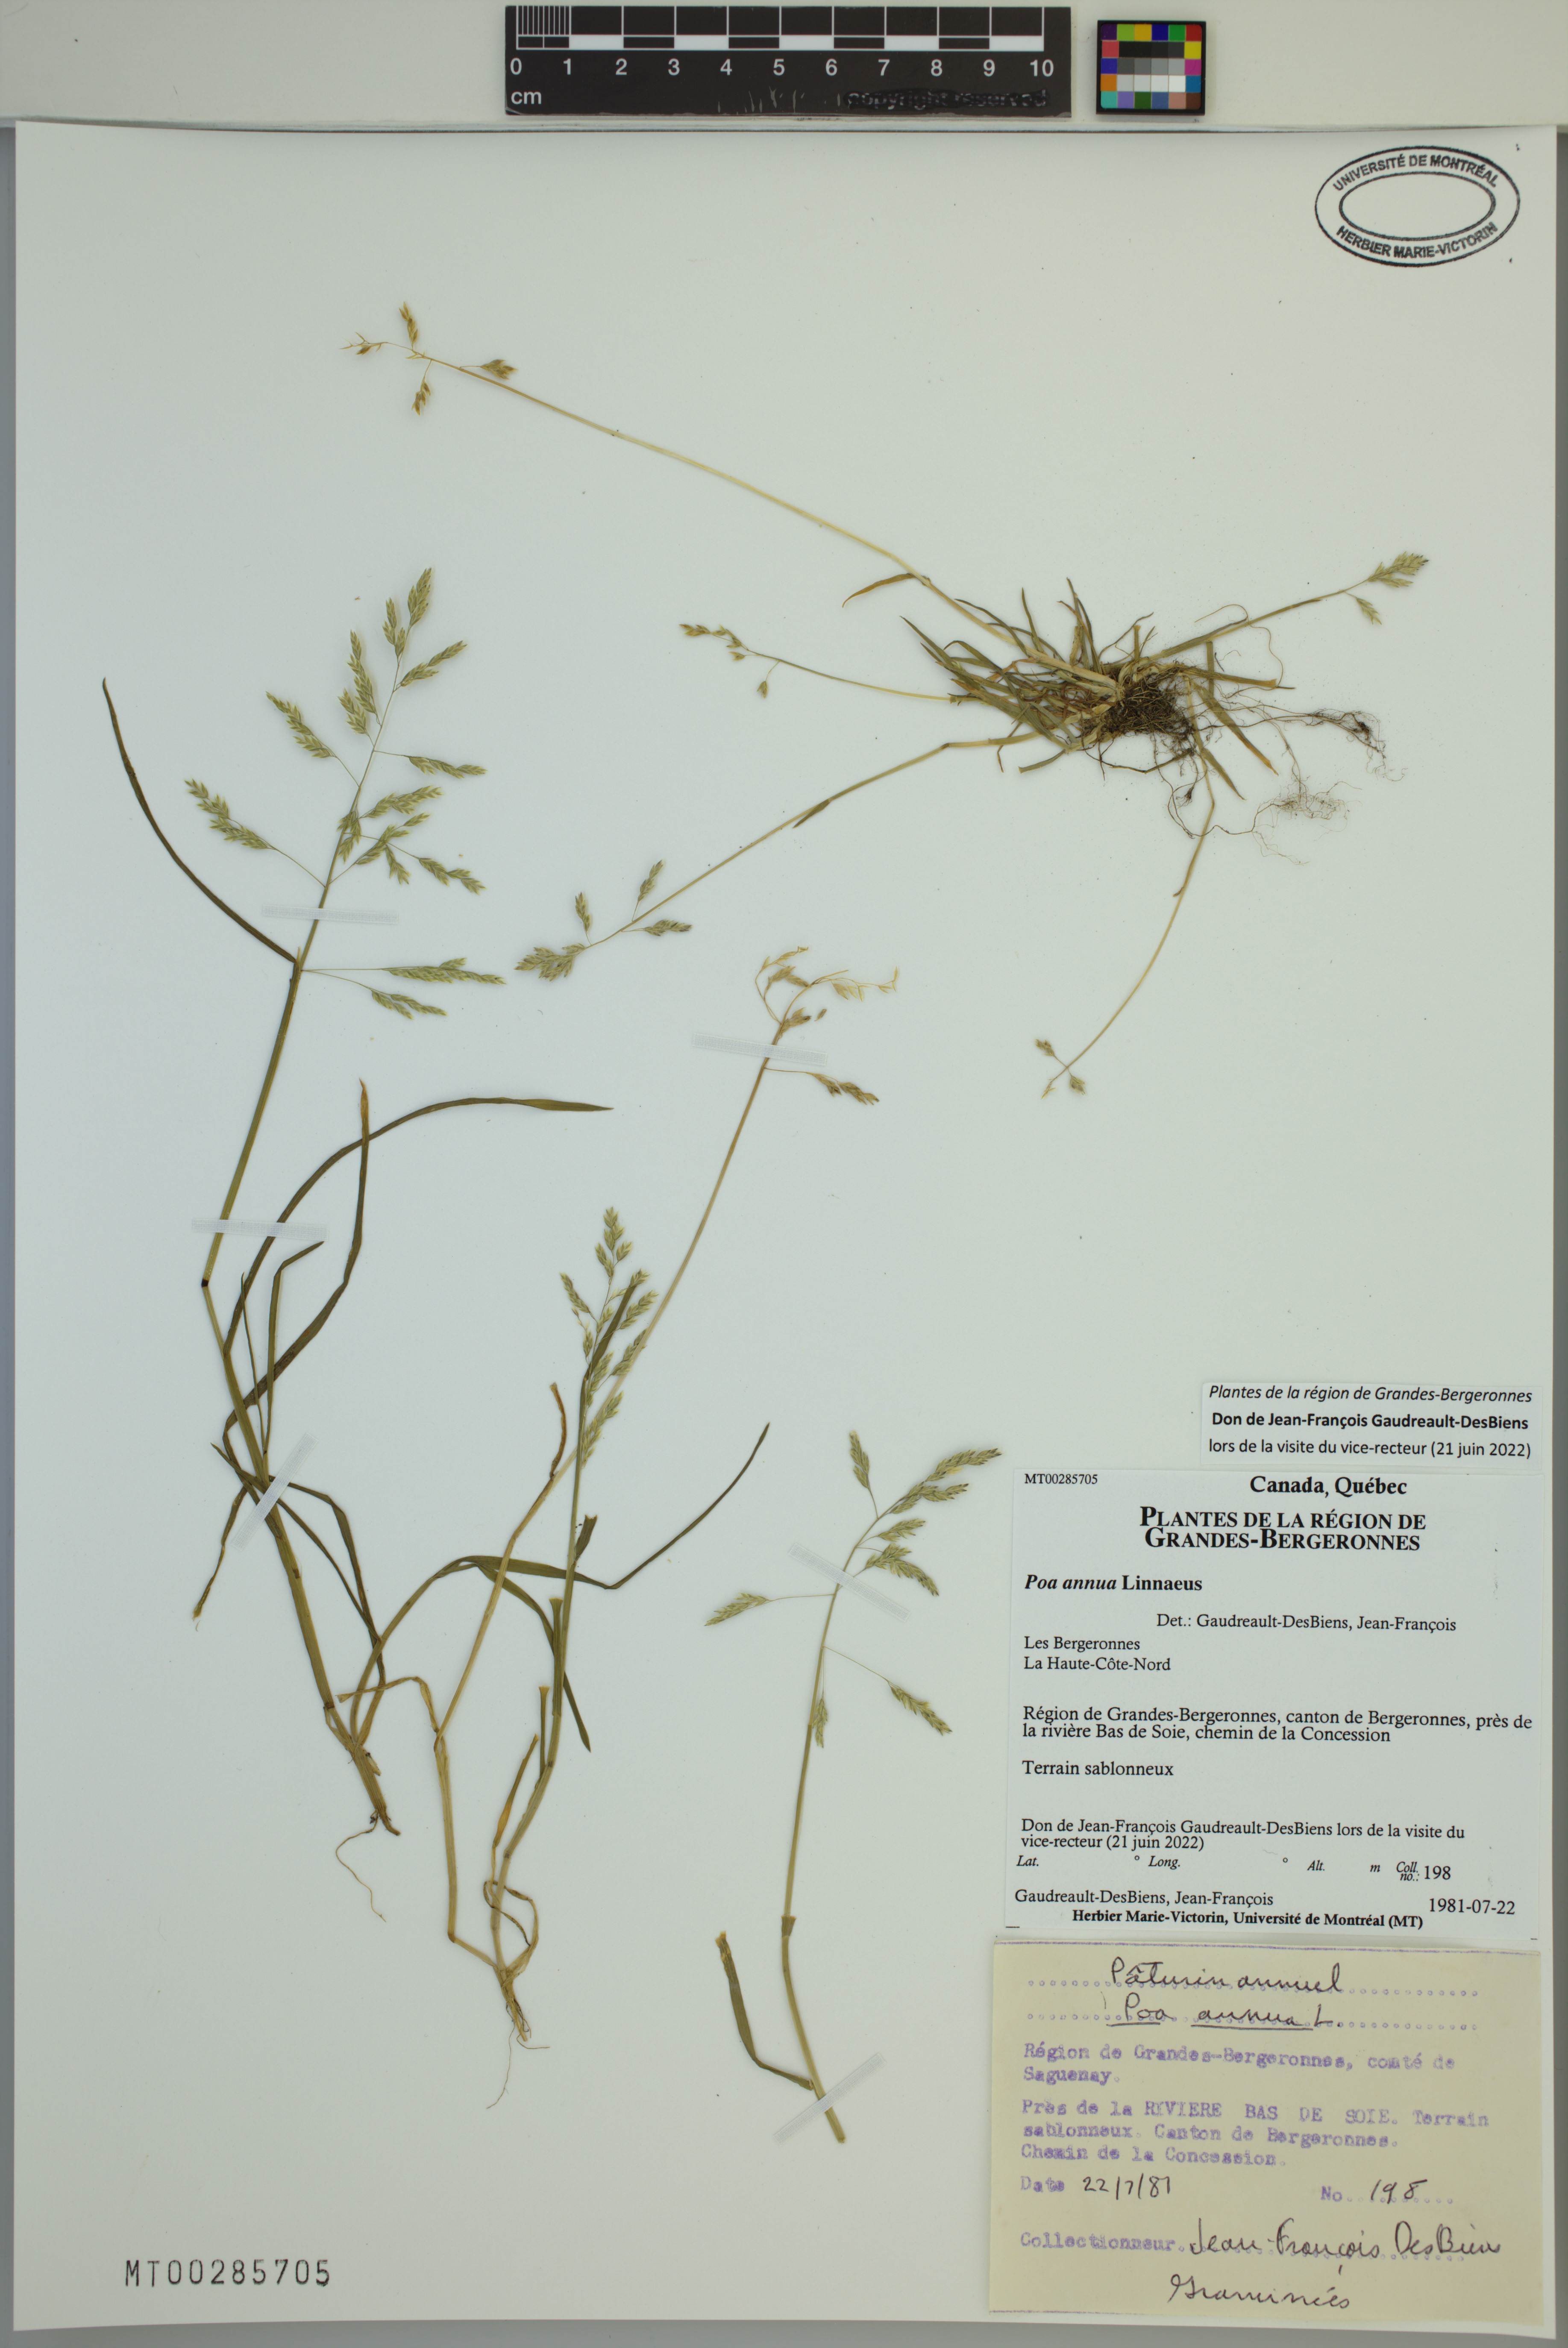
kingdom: Plantae
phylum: Tracheophyta
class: Liliopsida
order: Poales
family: Poaceae
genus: Poa
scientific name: Poa annua
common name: Annual bluegrass
